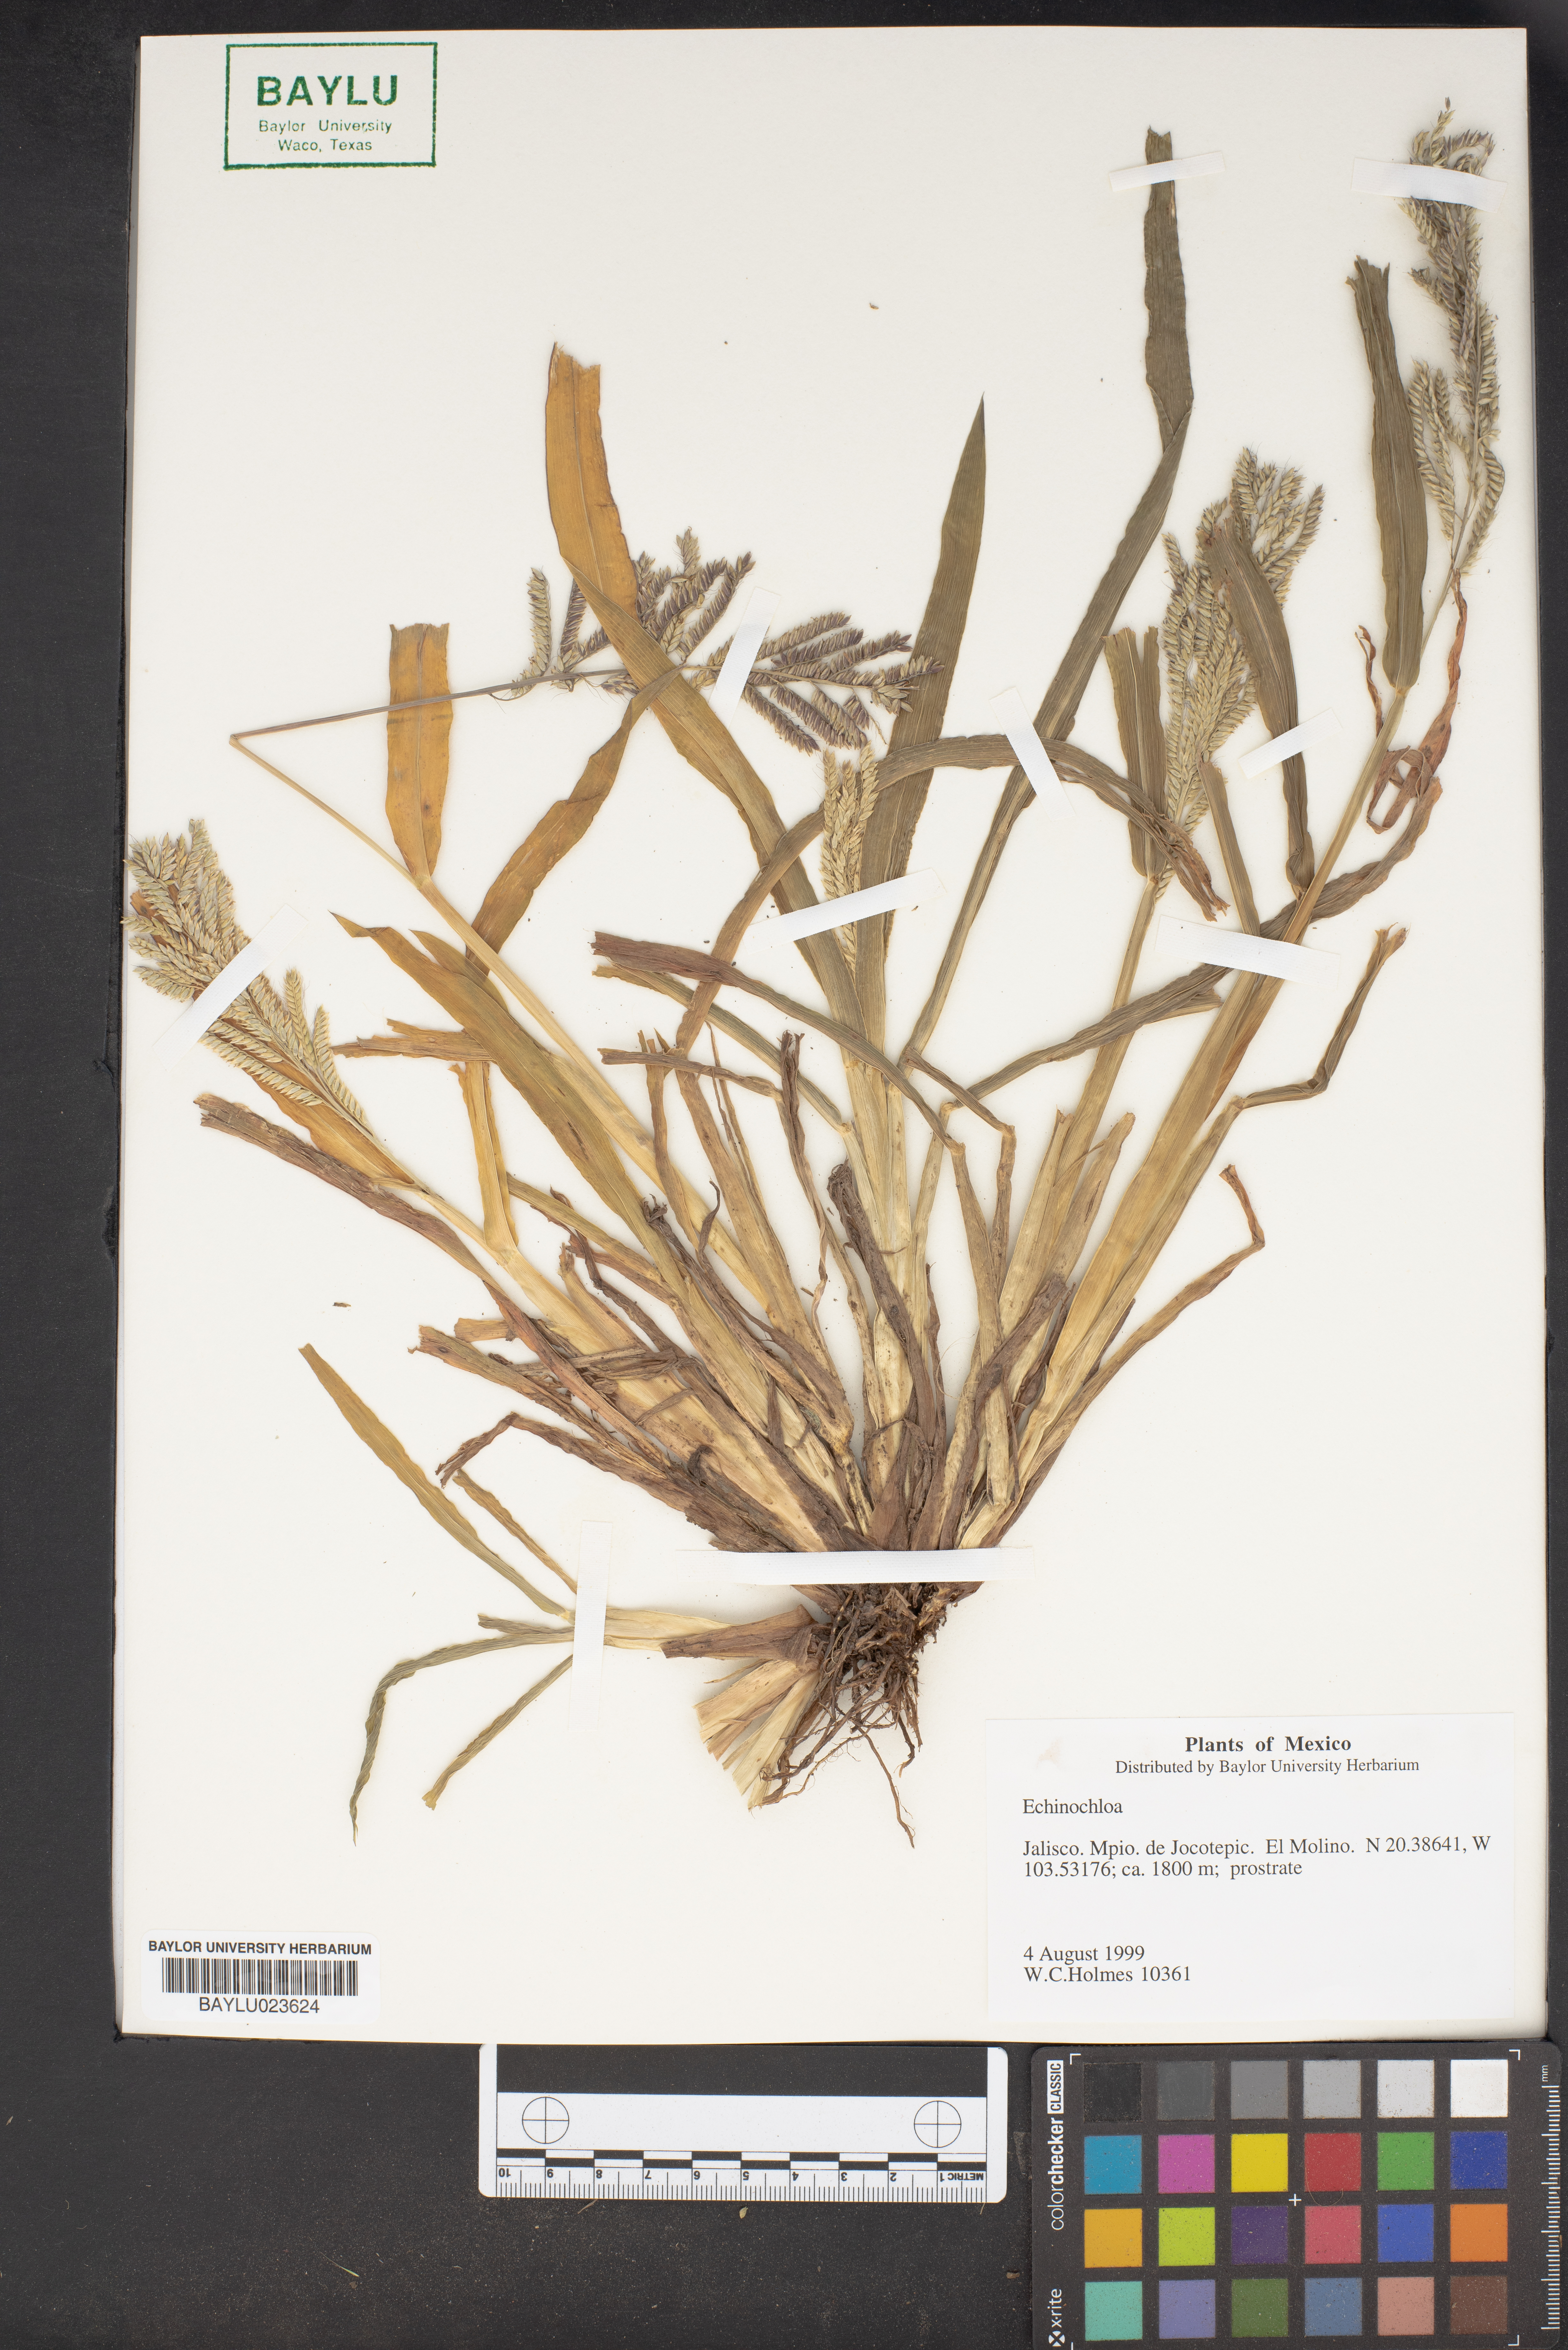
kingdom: Plantae
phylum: Tracheophyta
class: Liliopsida
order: Poales
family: Poaceae
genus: Echinochloa
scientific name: Echinochloa
